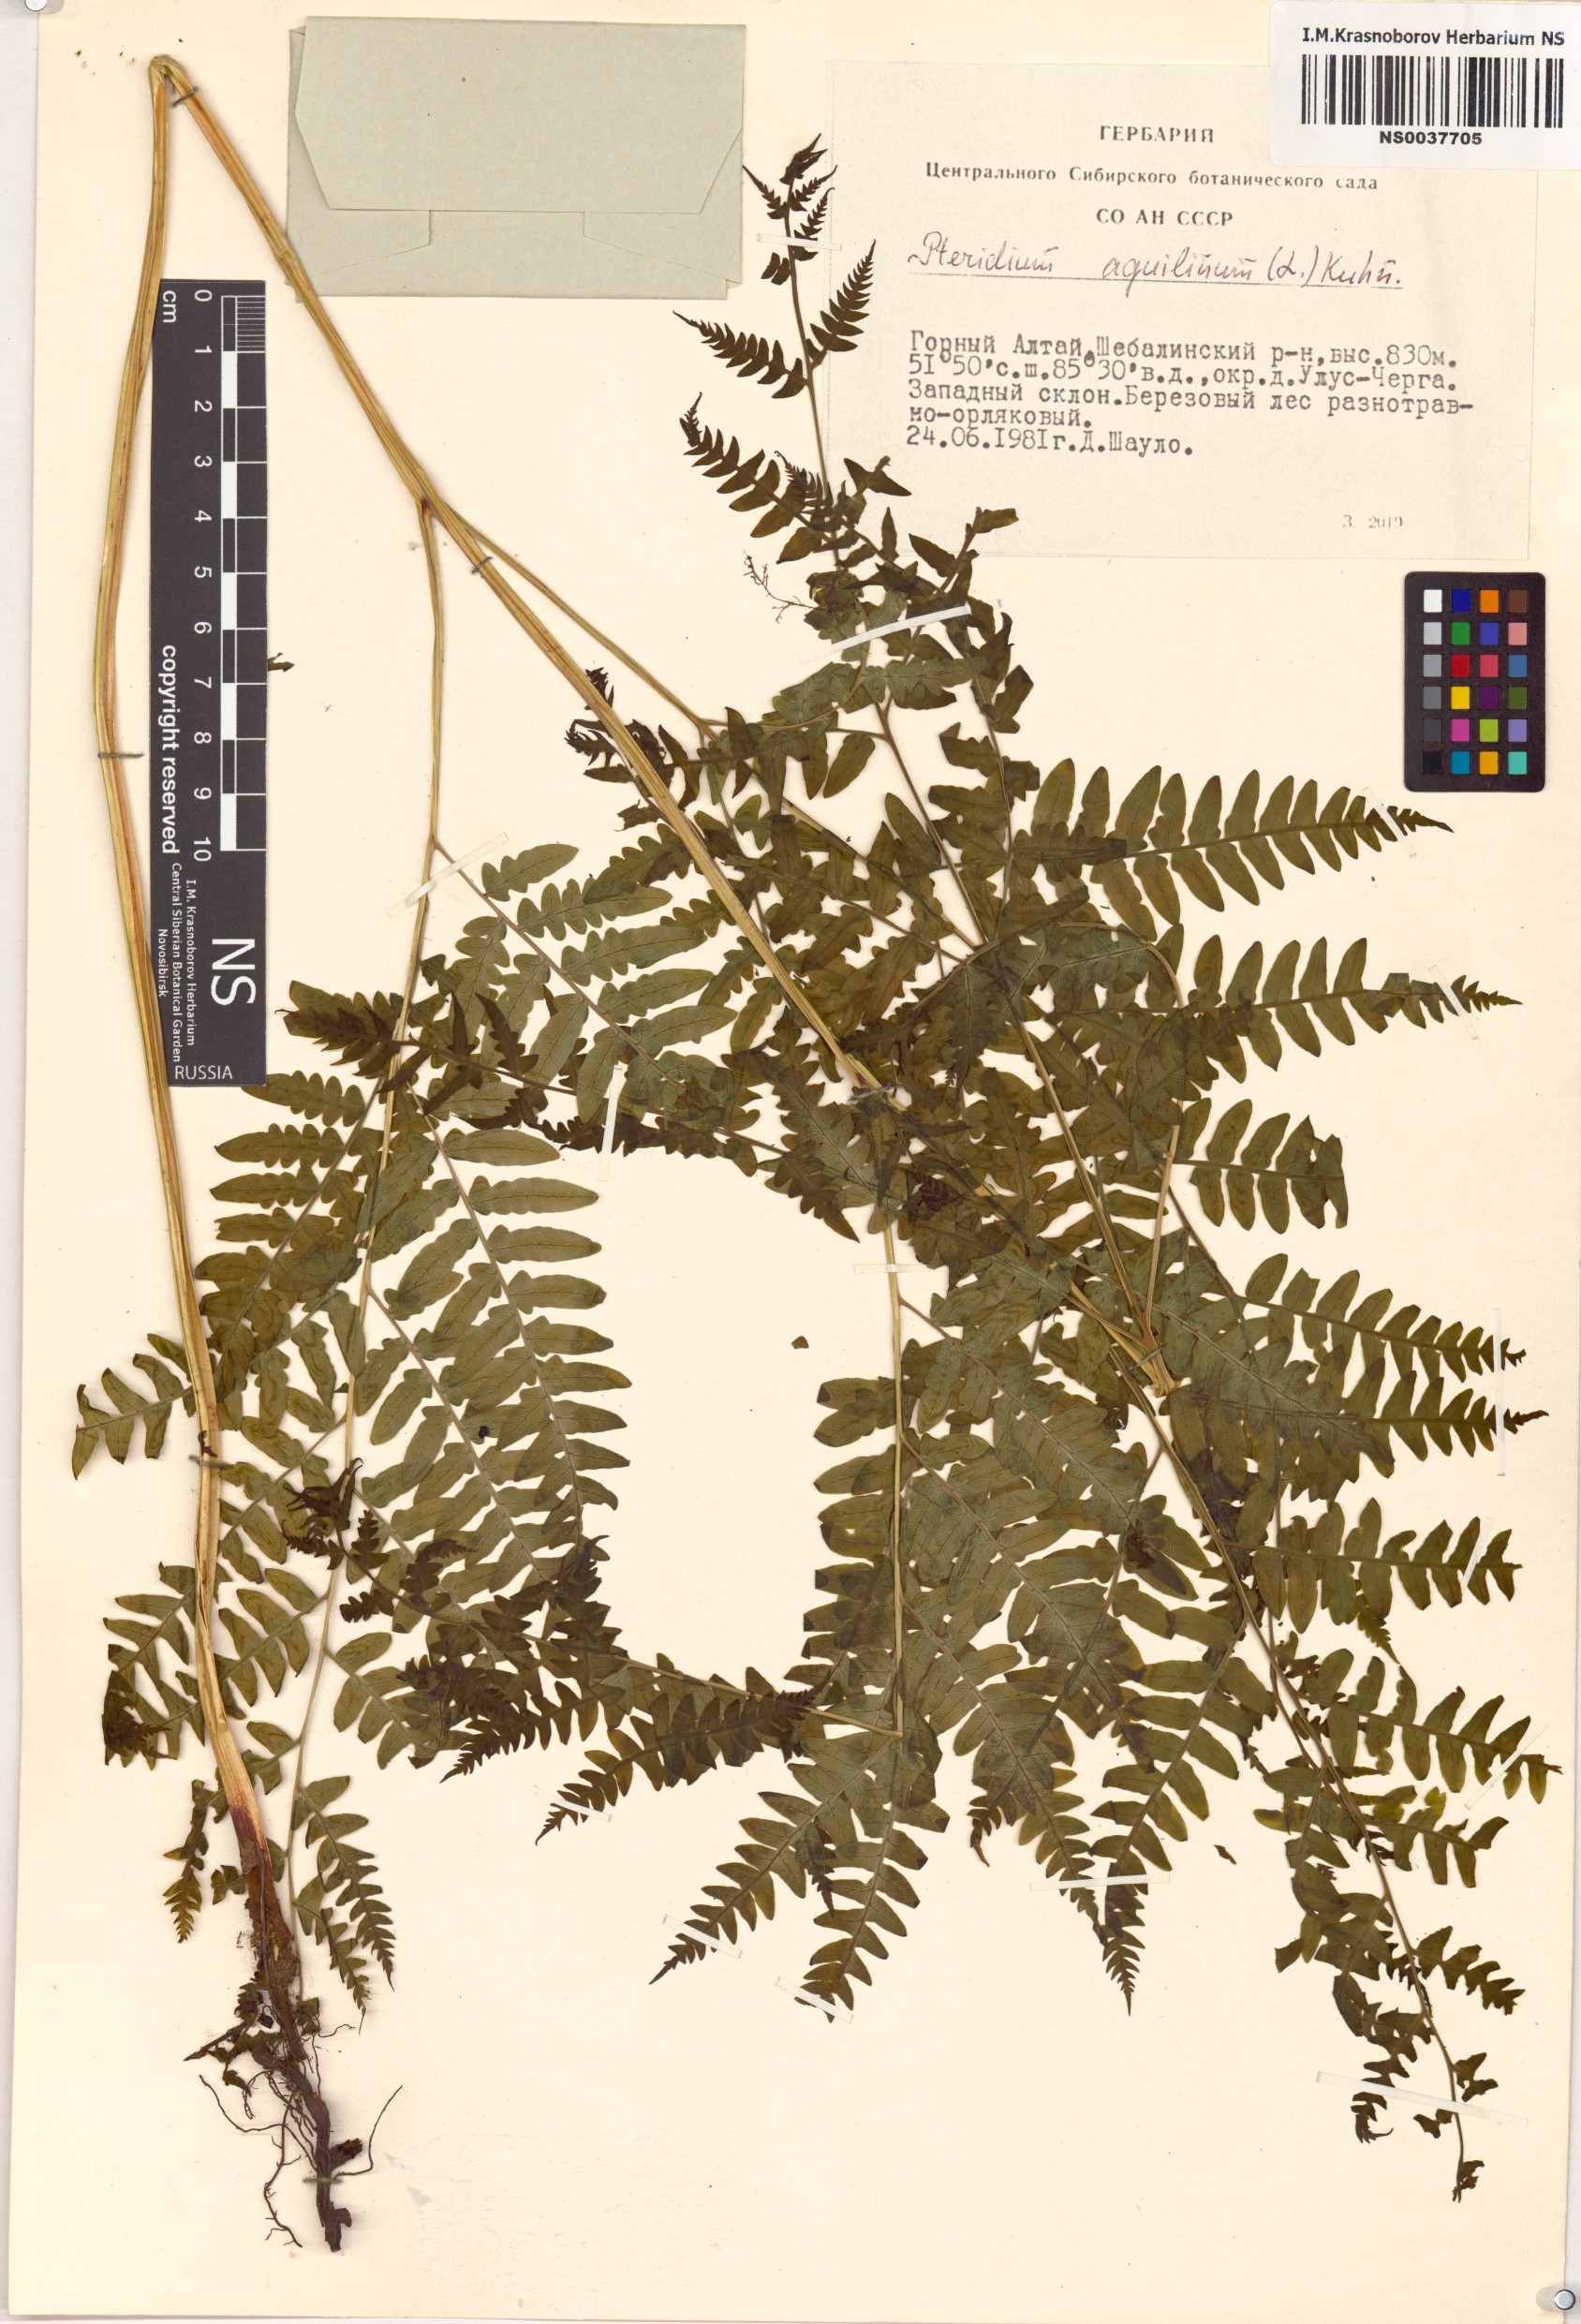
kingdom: Plantae
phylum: Tracheophyta
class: Polypodiopsida
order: Polypodiales
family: Dennstaedtiaceae
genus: Pteridium
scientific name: Pteridium aquilinum
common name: Bracken
